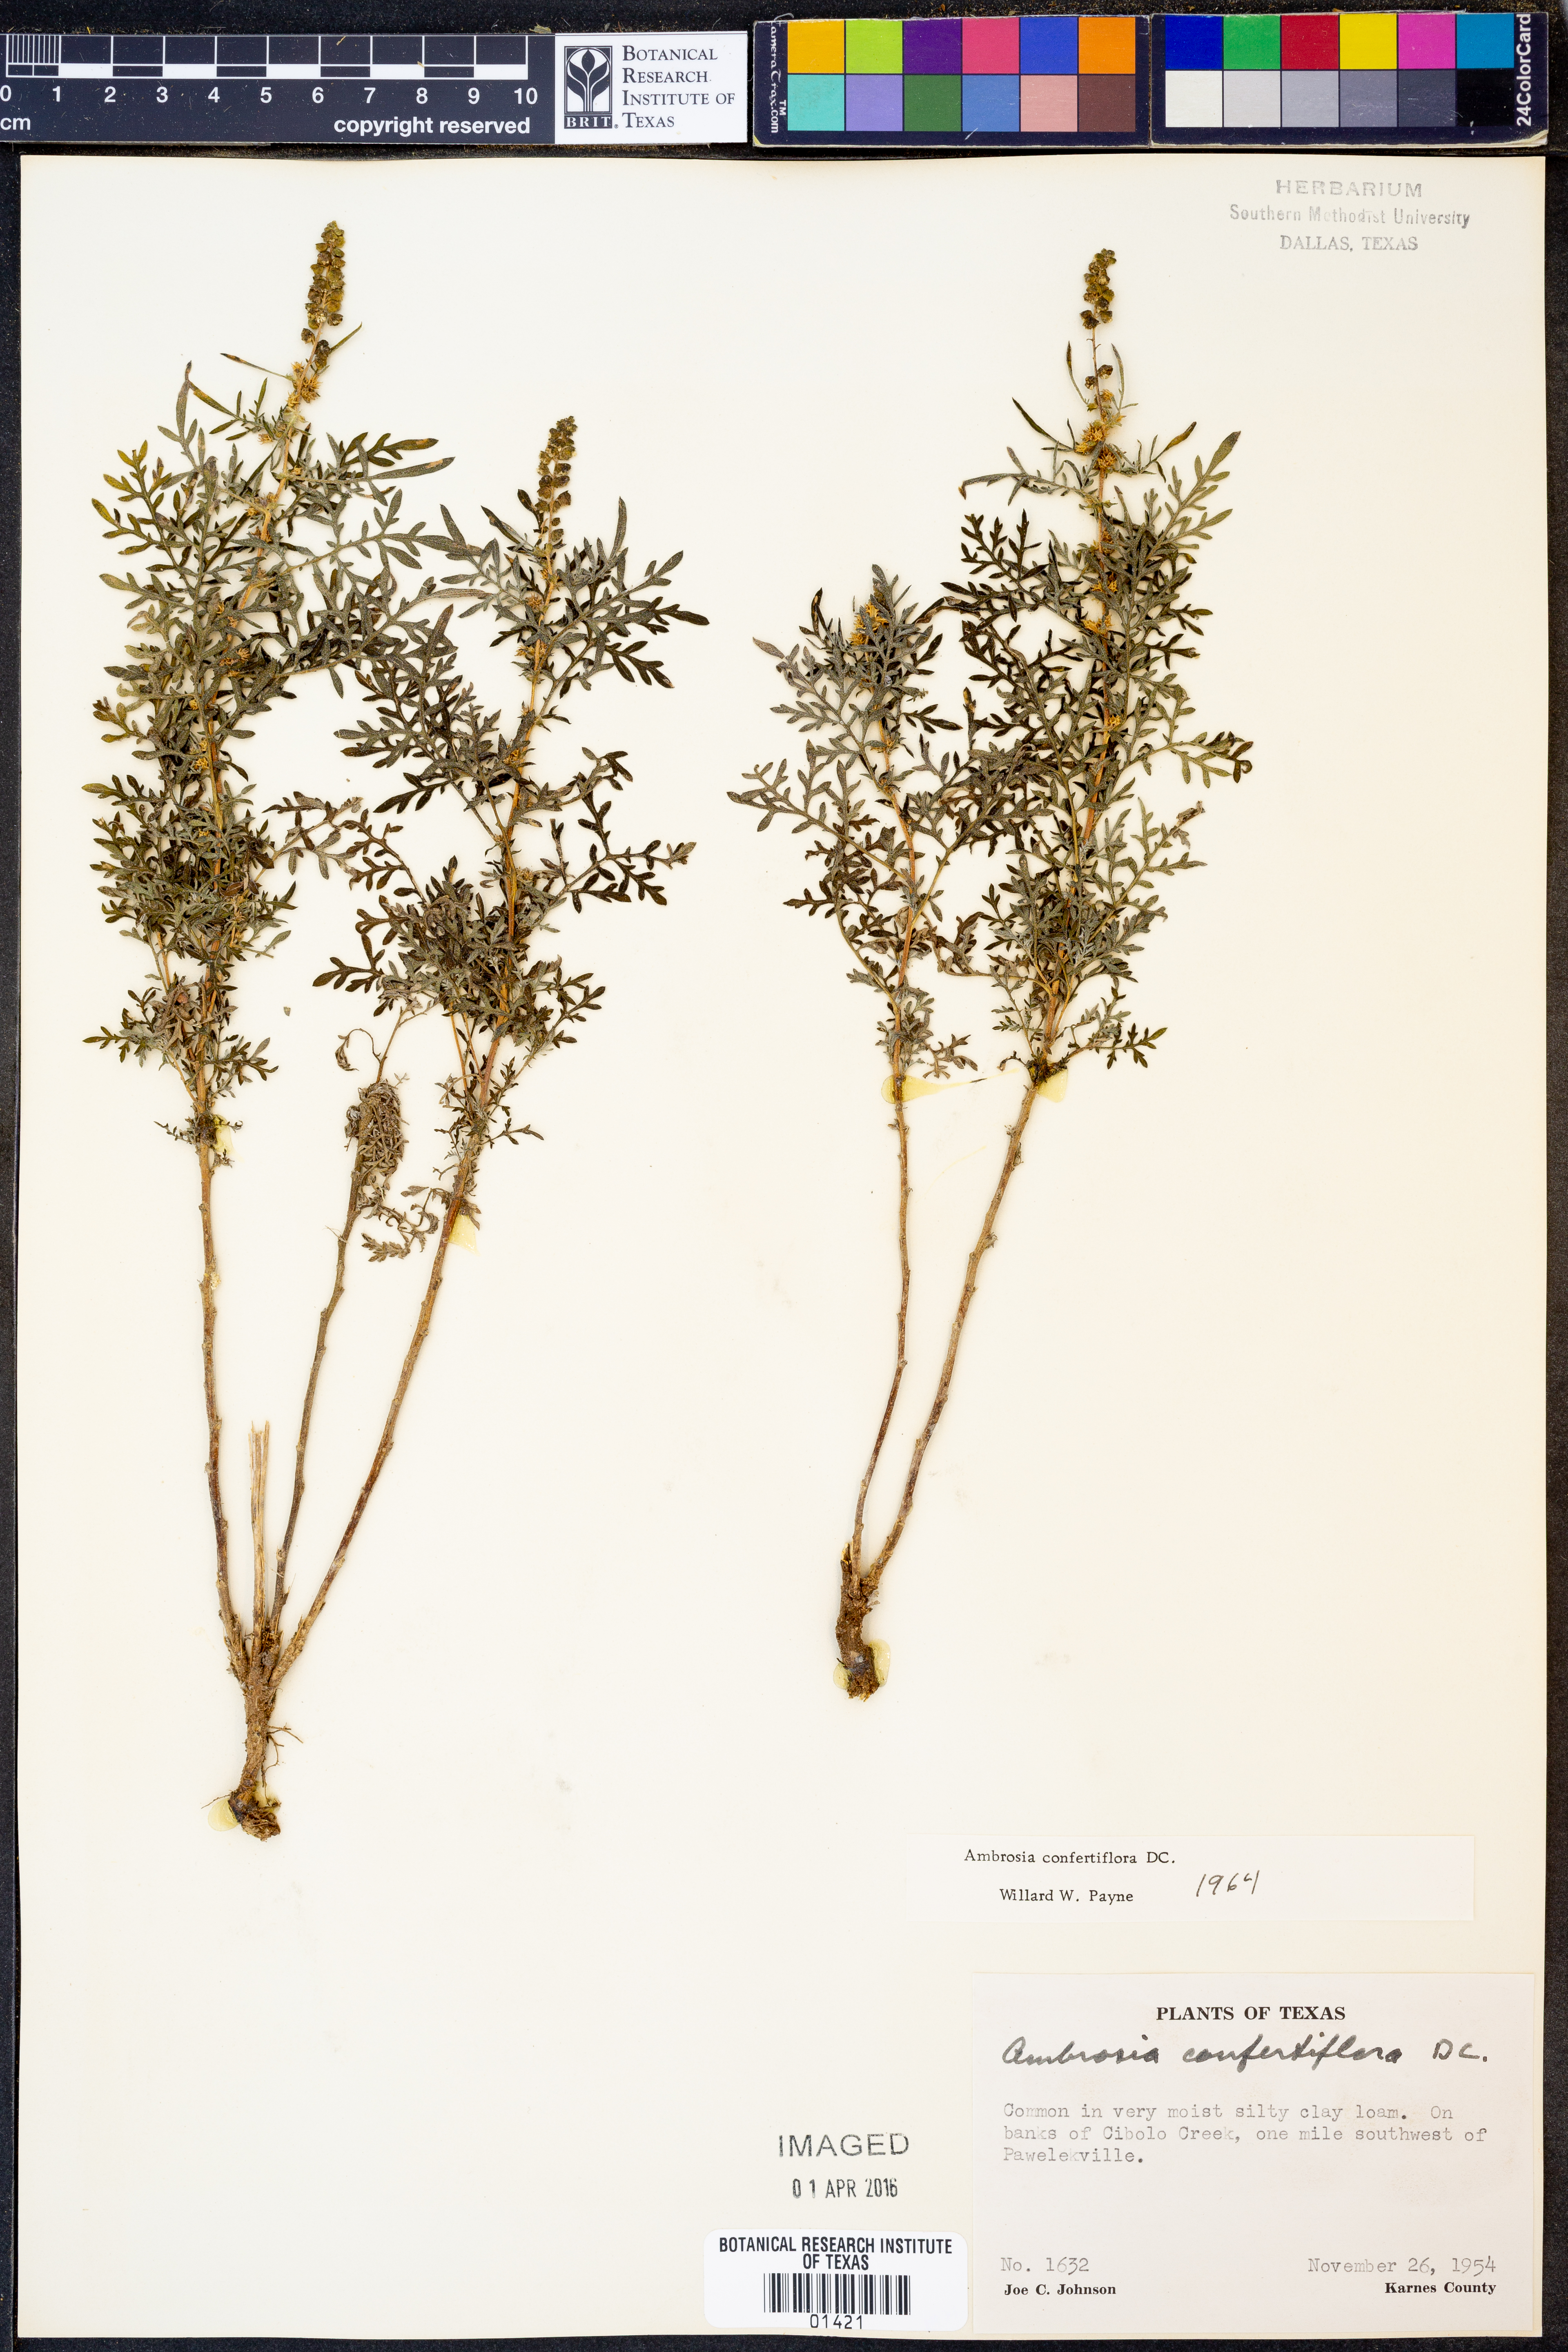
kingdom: Plantae
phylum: Tracheophyta
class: Magnoliopsida
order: Asterales
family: Asteraceae
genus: Ambrosia
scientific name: Ambrosia confertiflora
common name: Bur ragweed
